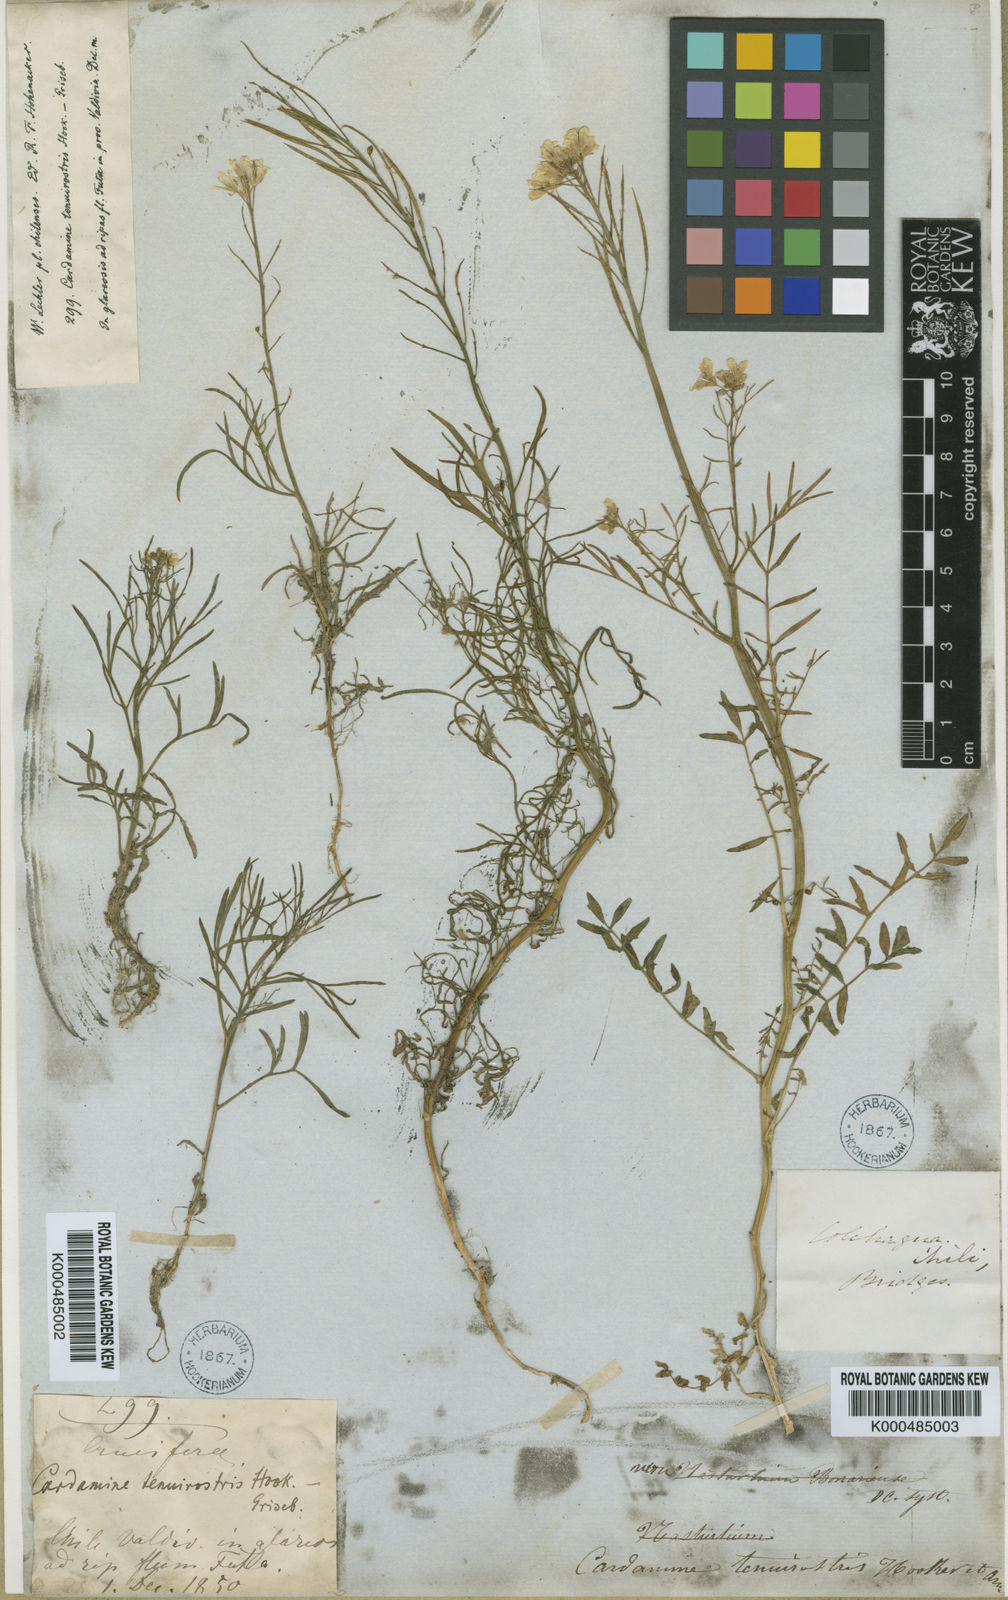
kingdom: Plantae
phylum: Tracheophyta
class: Magnoliopsida
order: Brassicales
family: Brassicaceae
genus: Cardamine
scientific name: Cardamine tenuirostris
